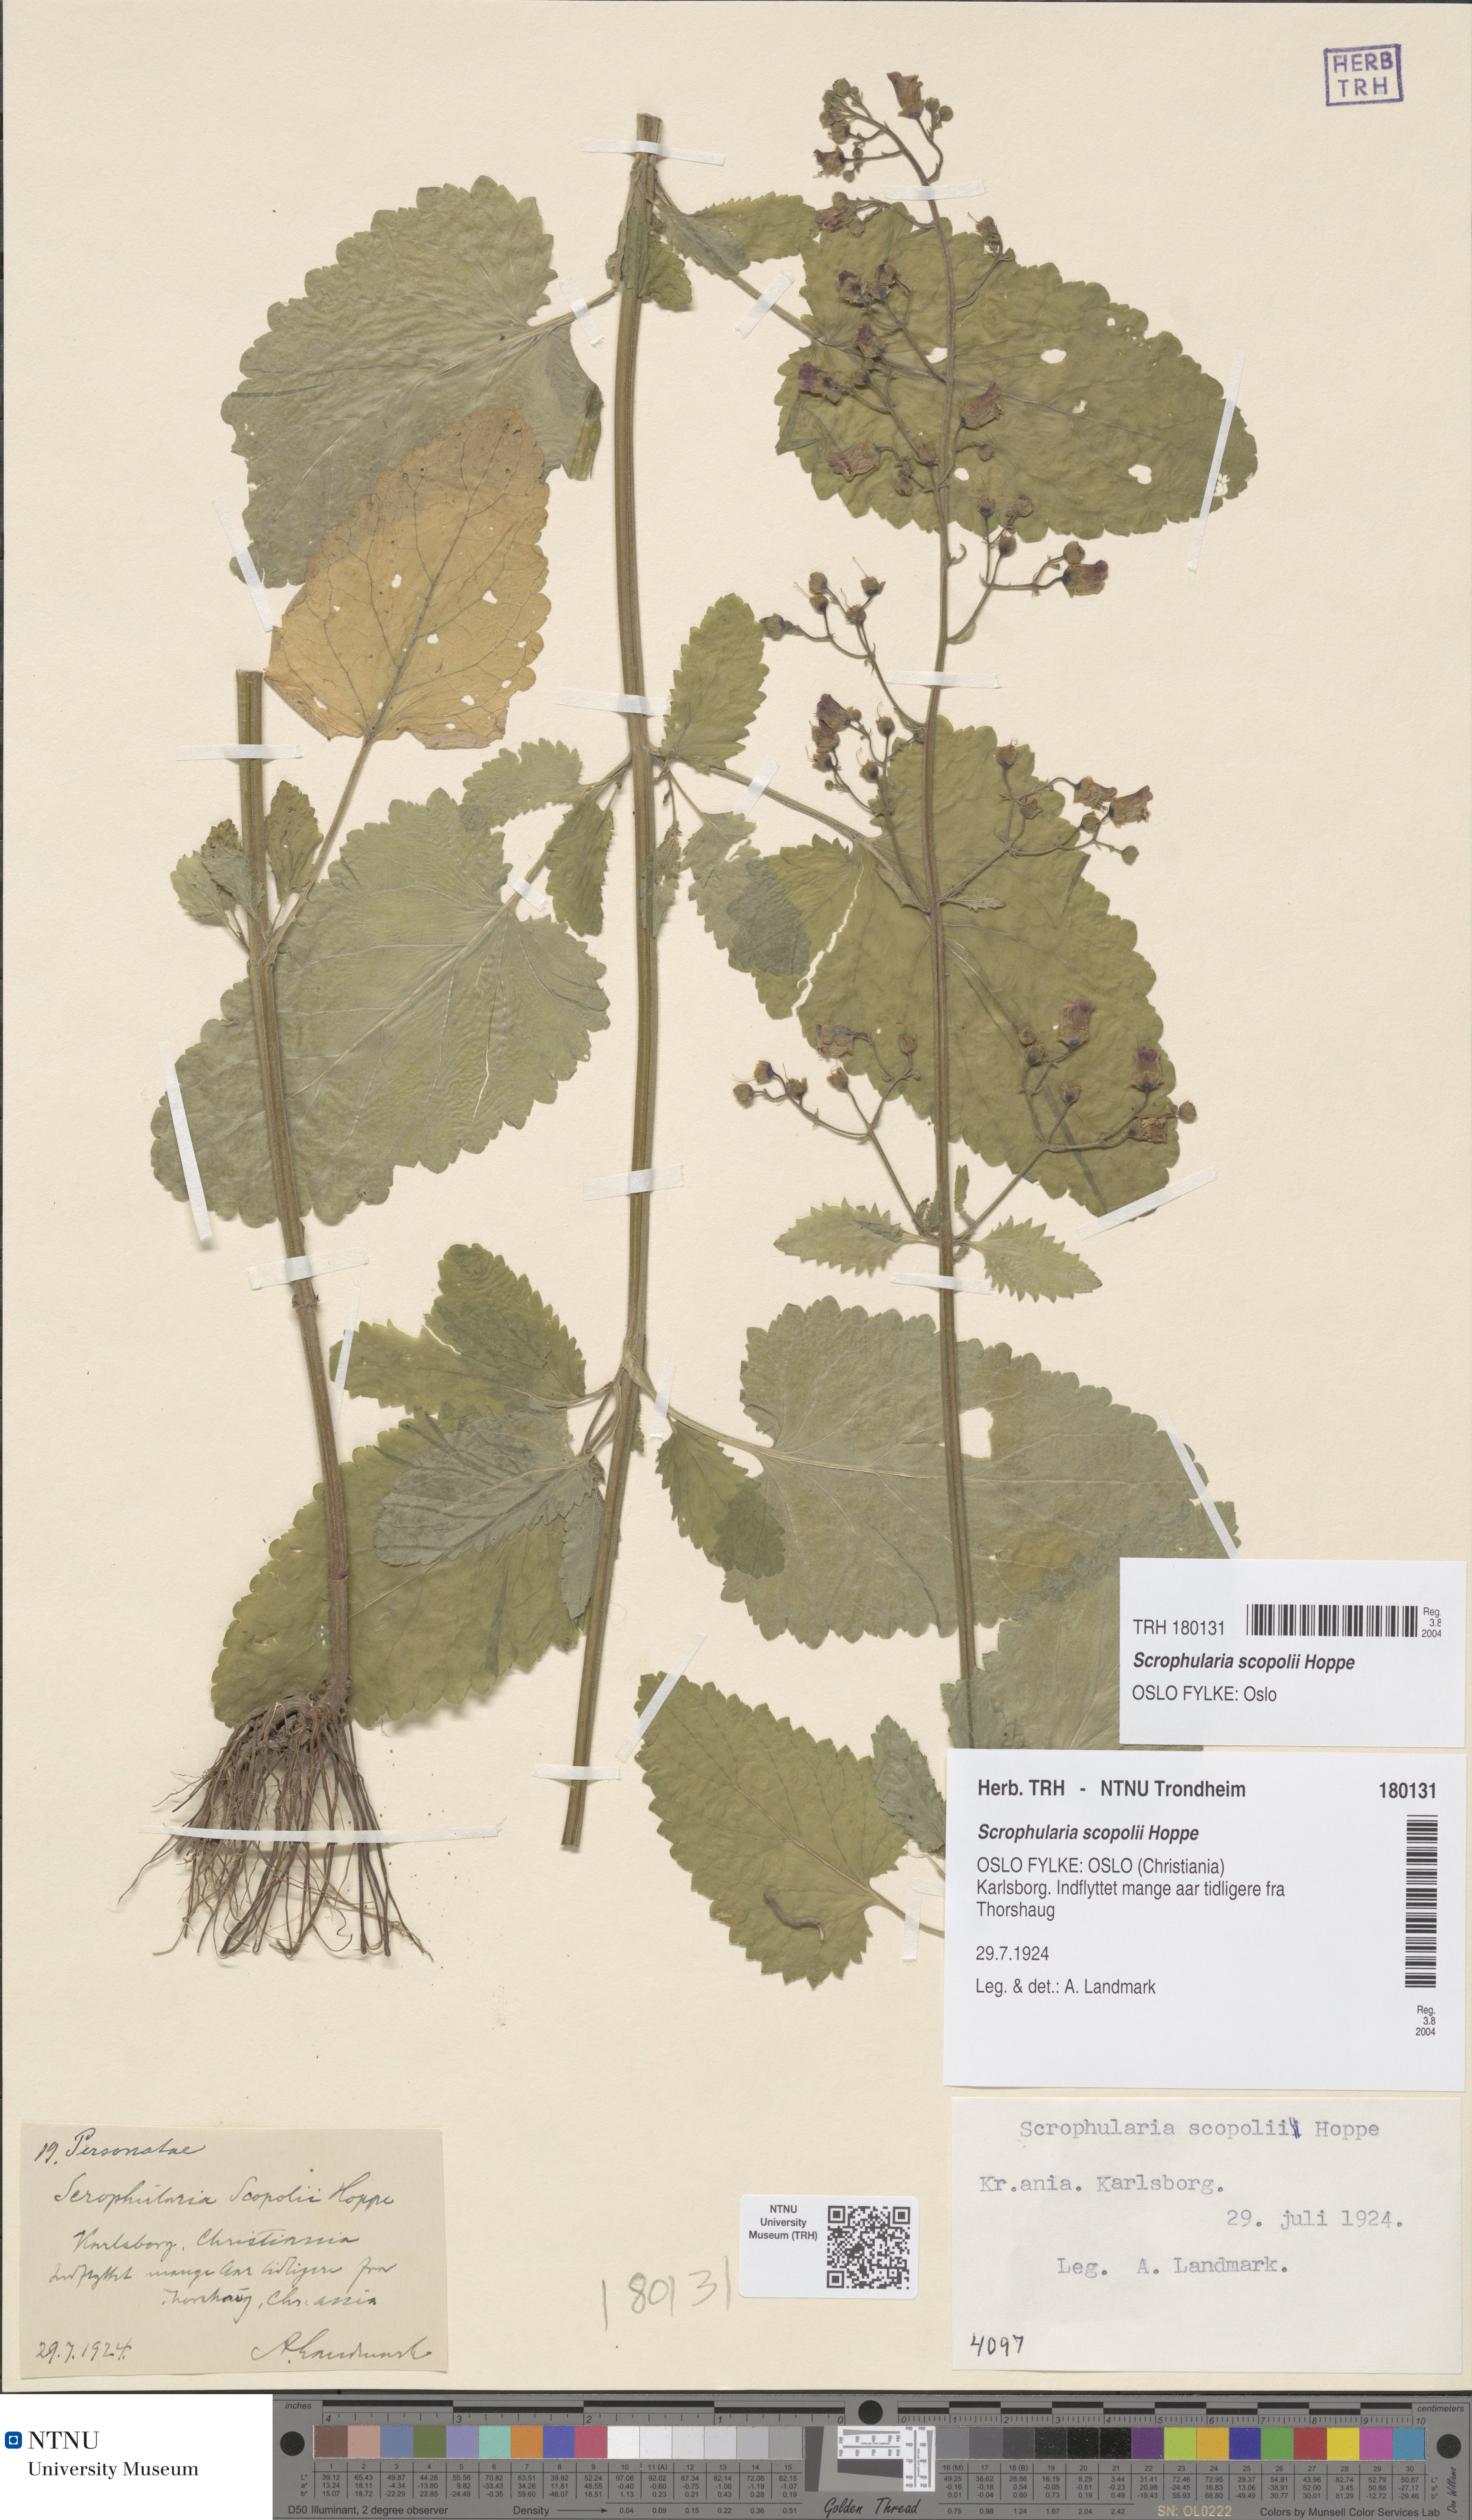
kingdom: Plantae
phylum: Tracheophyta
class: Magnoliopsida
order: Lamiales
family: Scrophulariaceae
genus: Scrophularia
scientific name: Scrophularia scopolii
